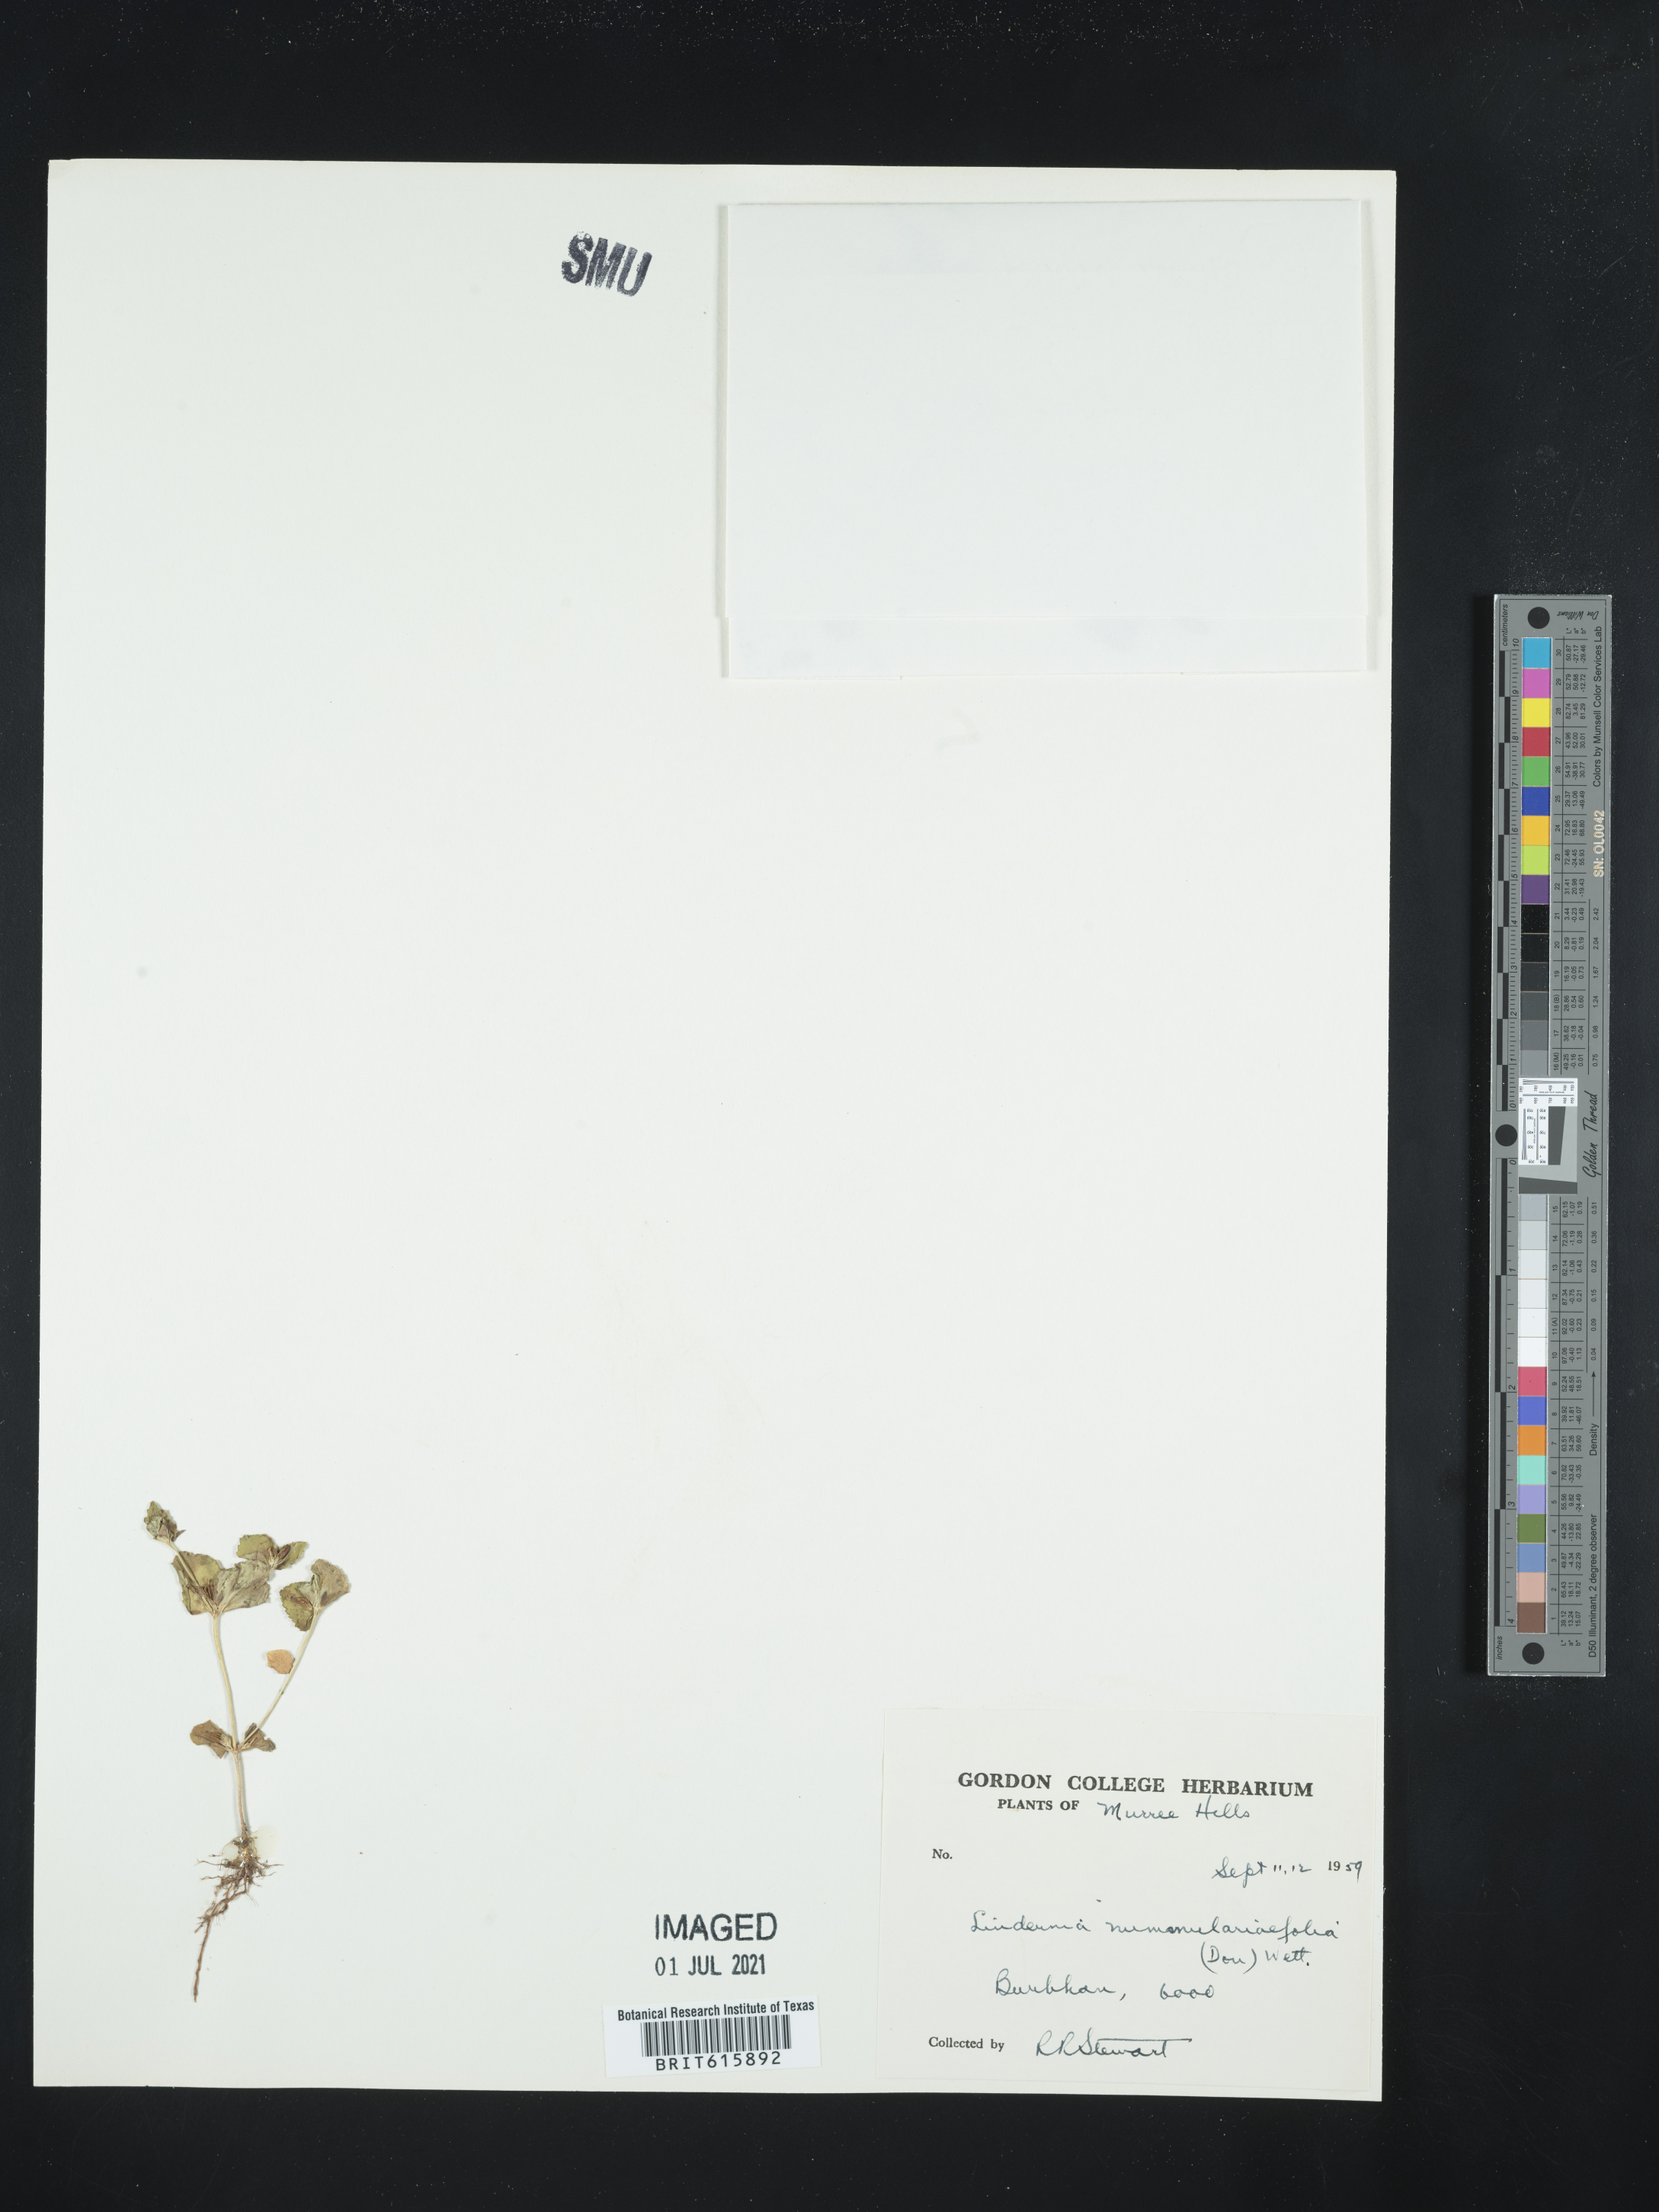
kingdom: Plantae
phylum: Tracheophyta
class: Magnoliopsida
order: Lamiales
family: Linderniaceae
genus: Craterostigma
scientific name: Craterostigma nummulariifolium
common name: False pimpernel
